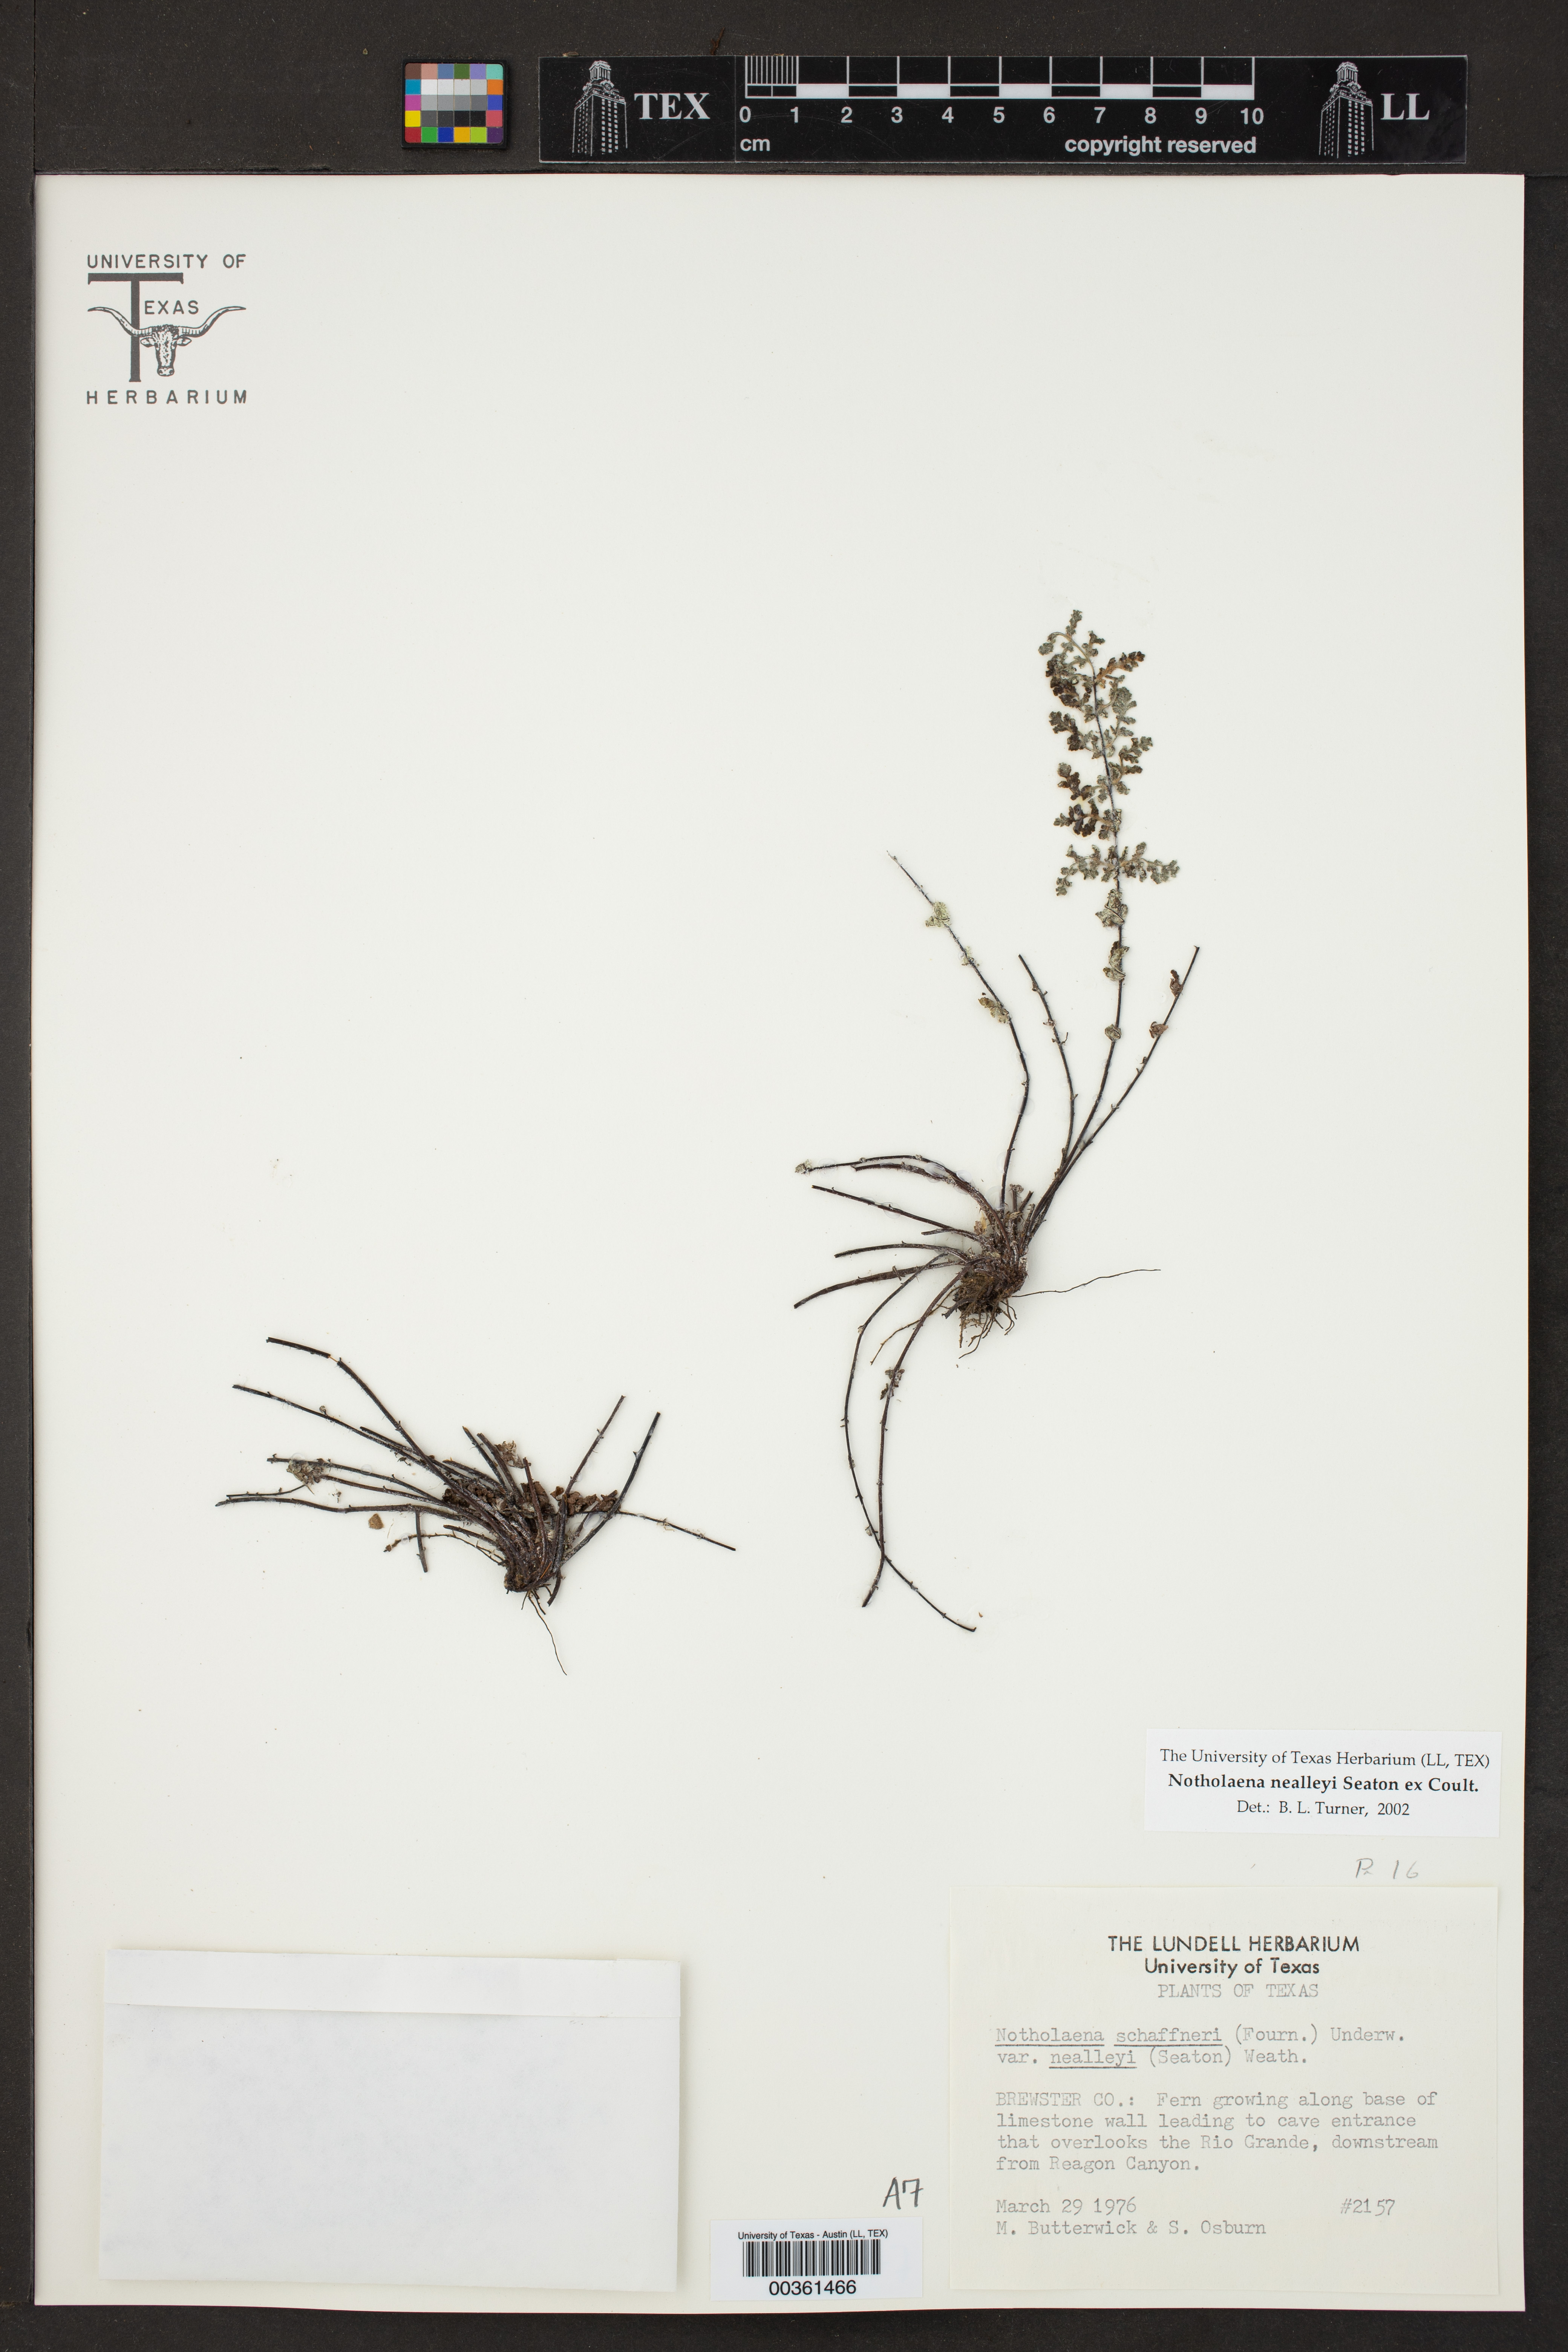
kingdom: Plantae
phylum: Tracheophyta
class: Polypodiopsida
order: Polypodiales
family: Pteridaceae
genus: Notholaena
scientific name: Notholaena schaffneri
